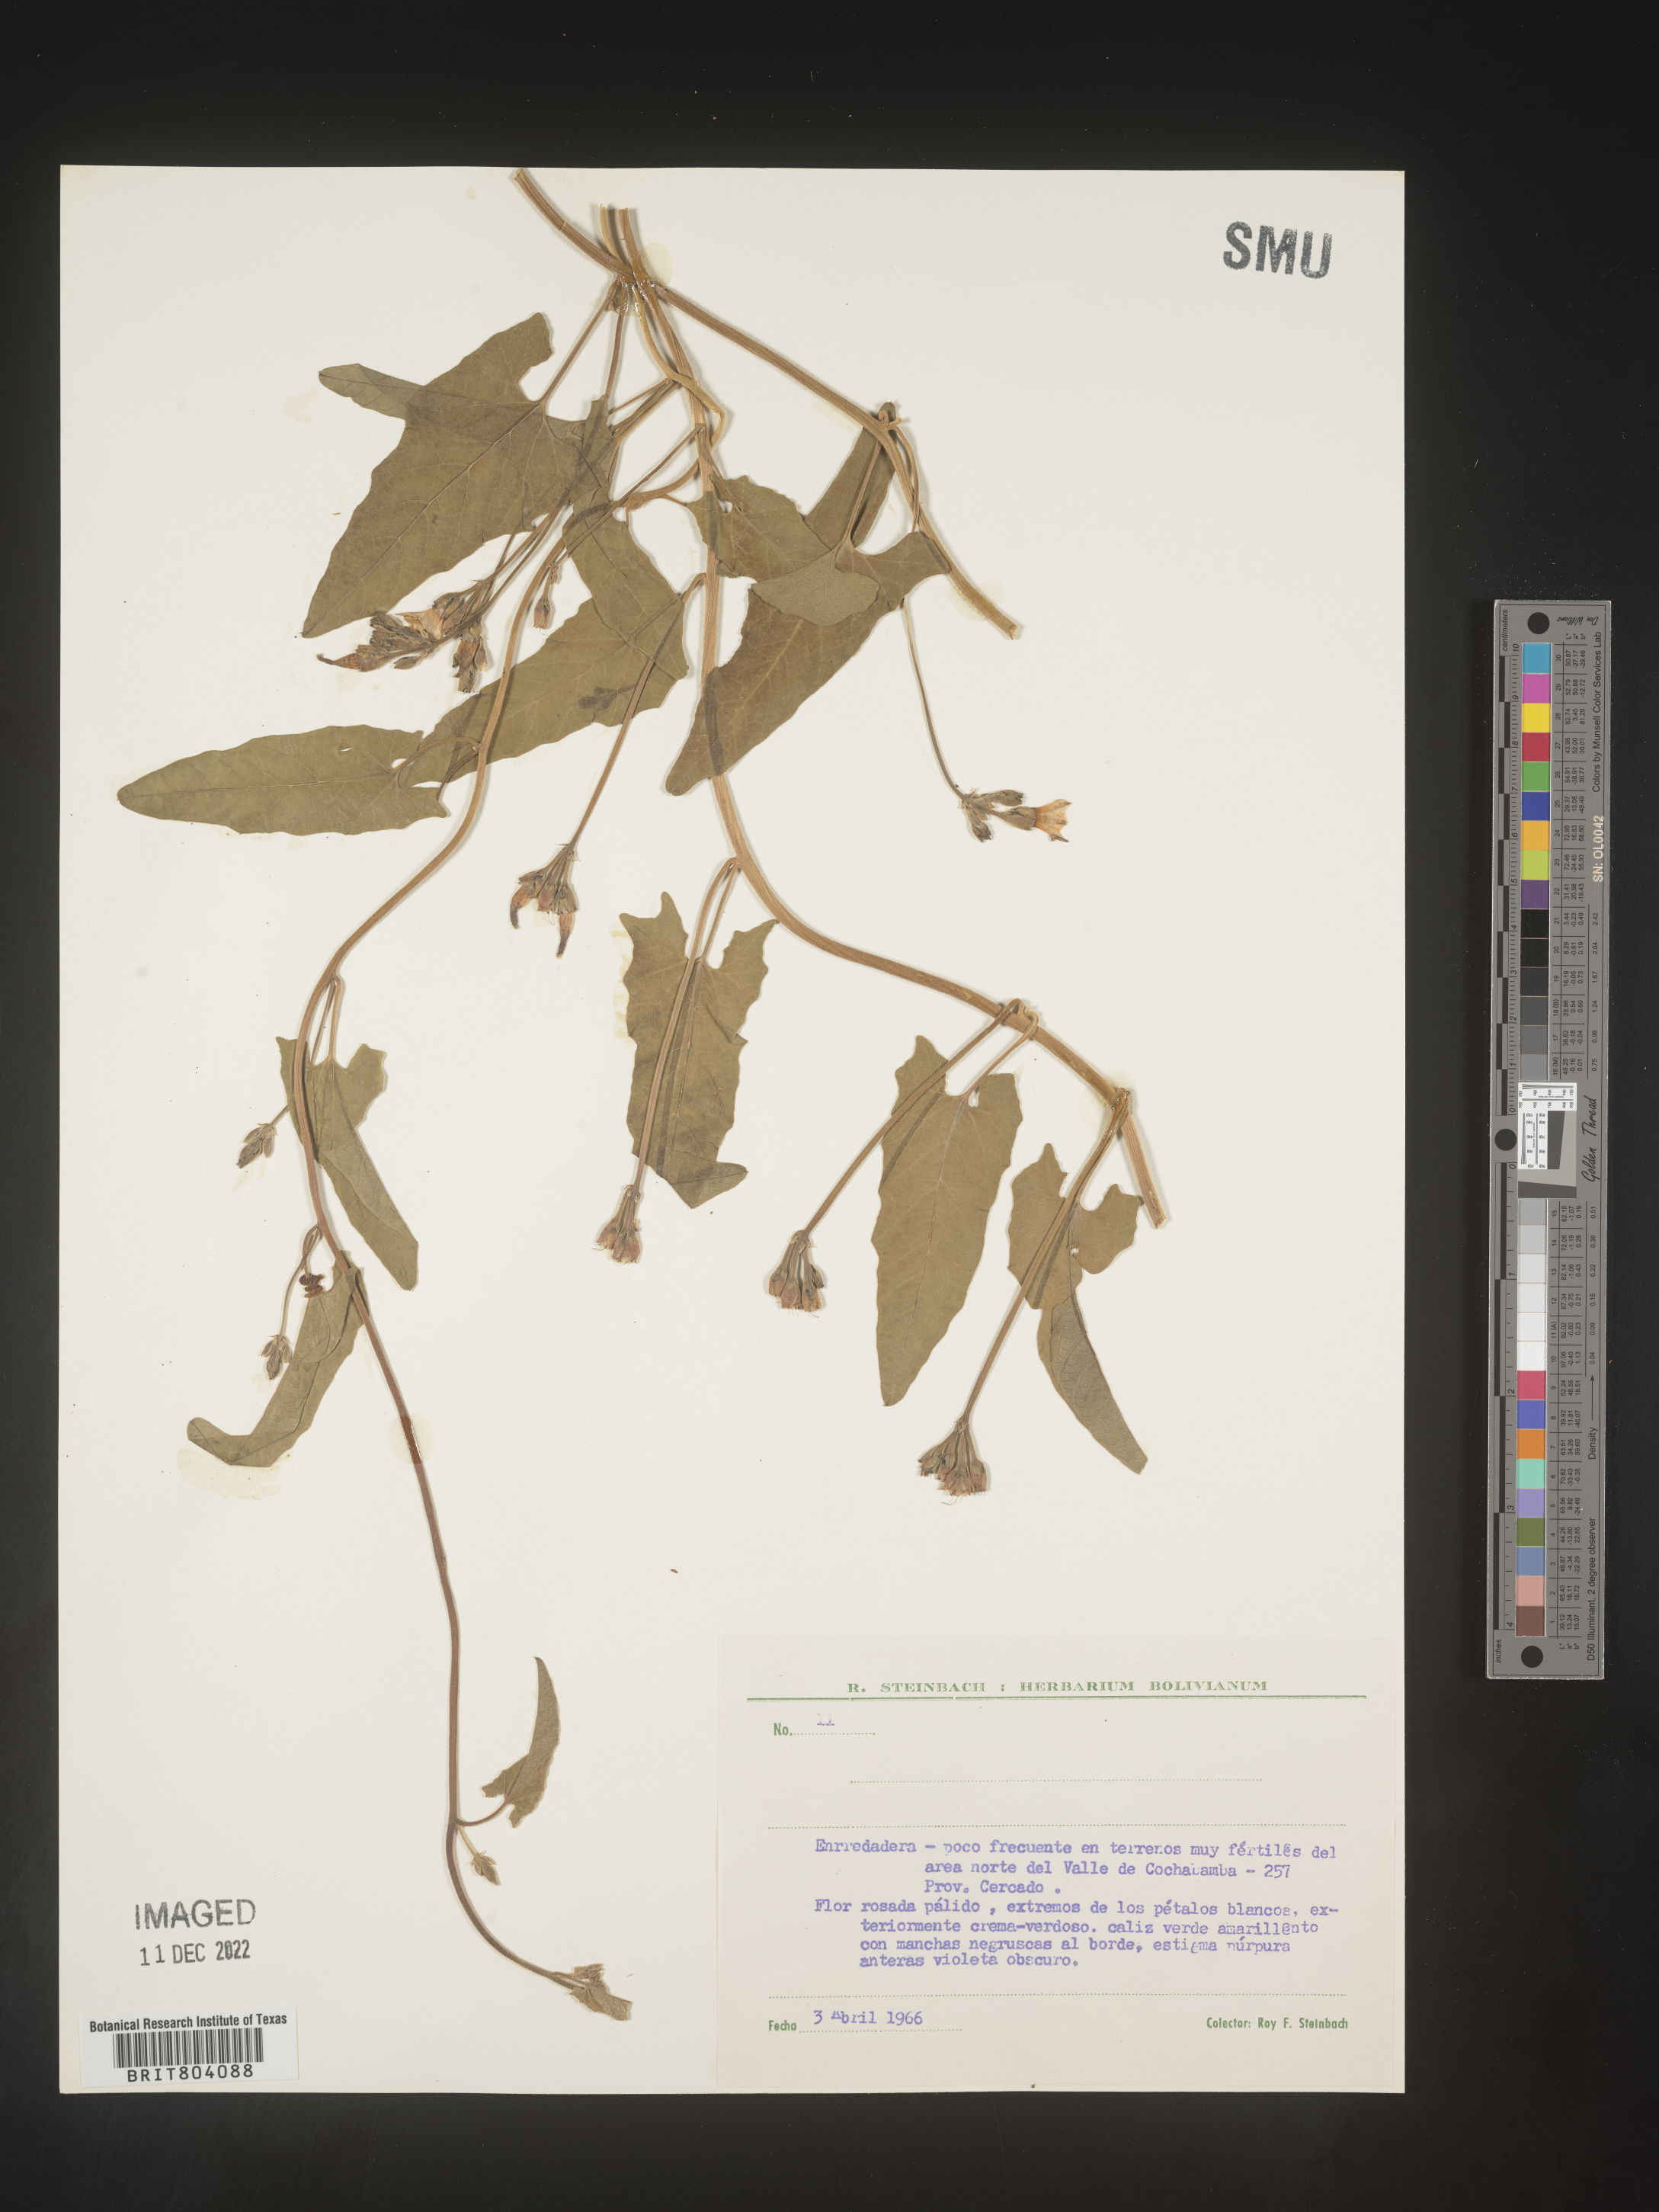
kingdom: Plantae
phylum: Tracheophyta
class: Magnoliopsida
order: Solanales
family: Convolvulaceae
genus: Convolvulus
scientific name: Convolvulus
